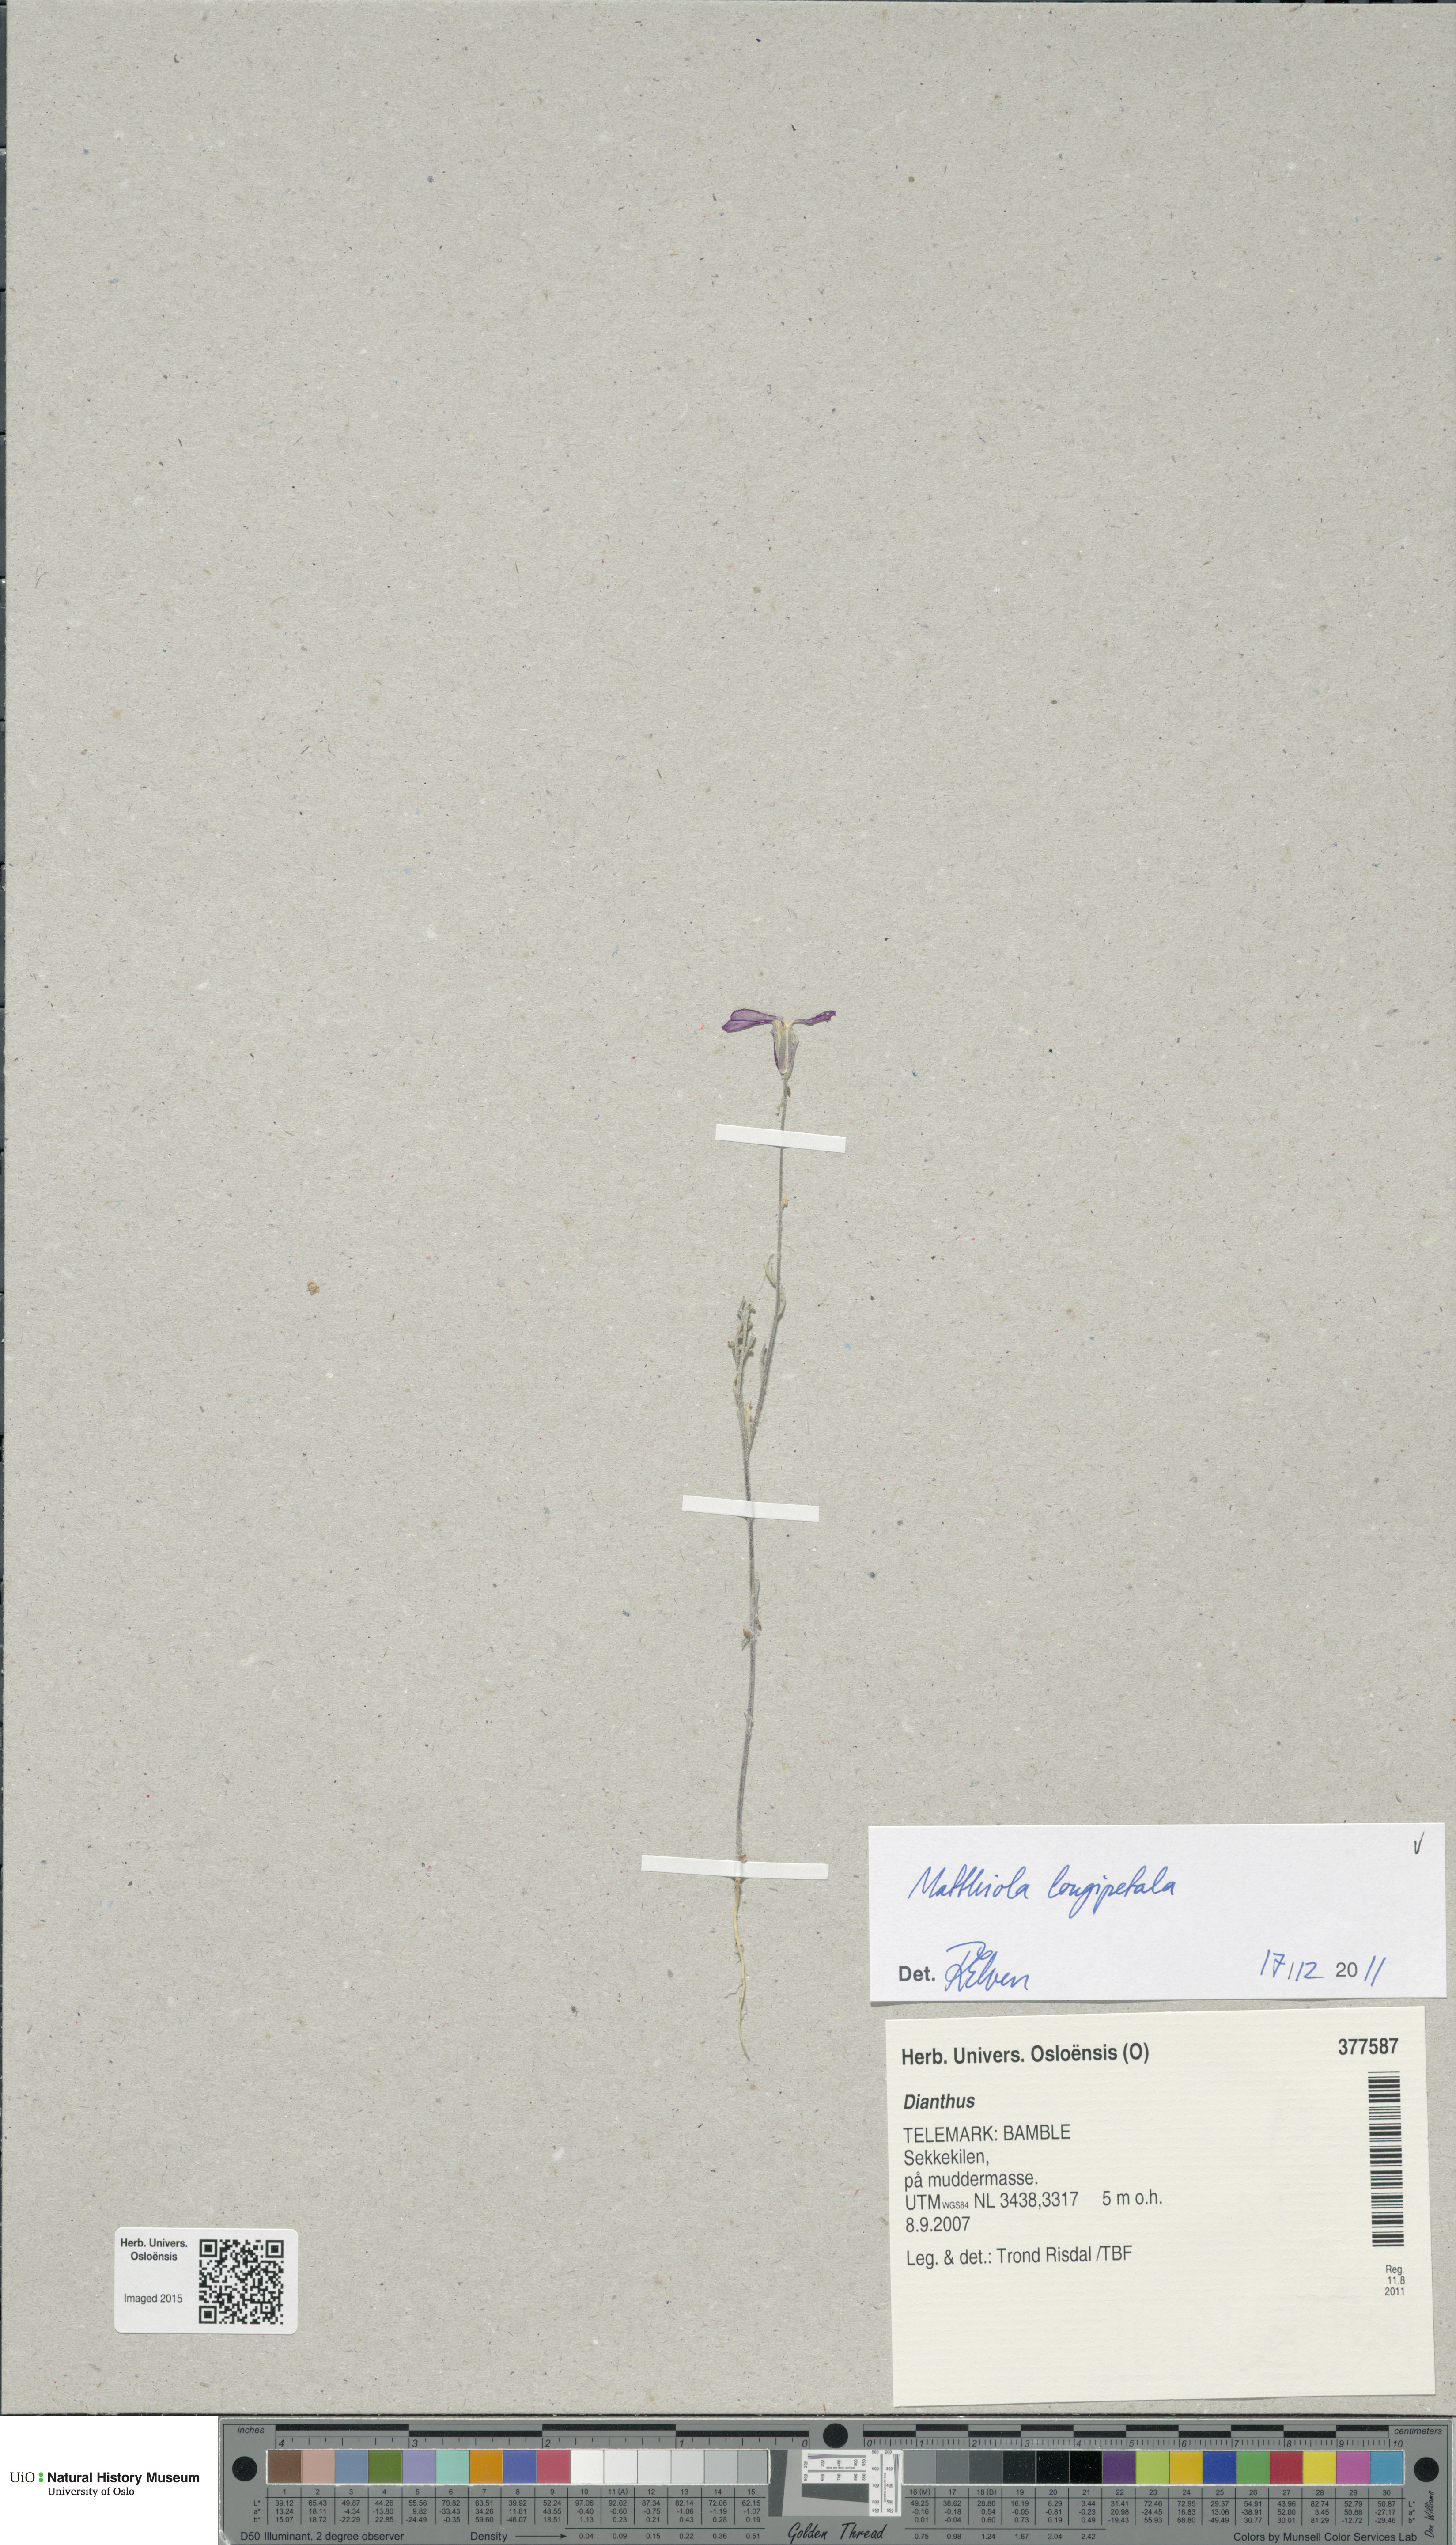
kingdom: Plantae
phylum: Tracheophyta
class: Magnoliopsida
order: Brassicales
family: Brassicaceae
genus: Matthiola
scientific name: Matthiola longipetala
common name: Night-scented stock
